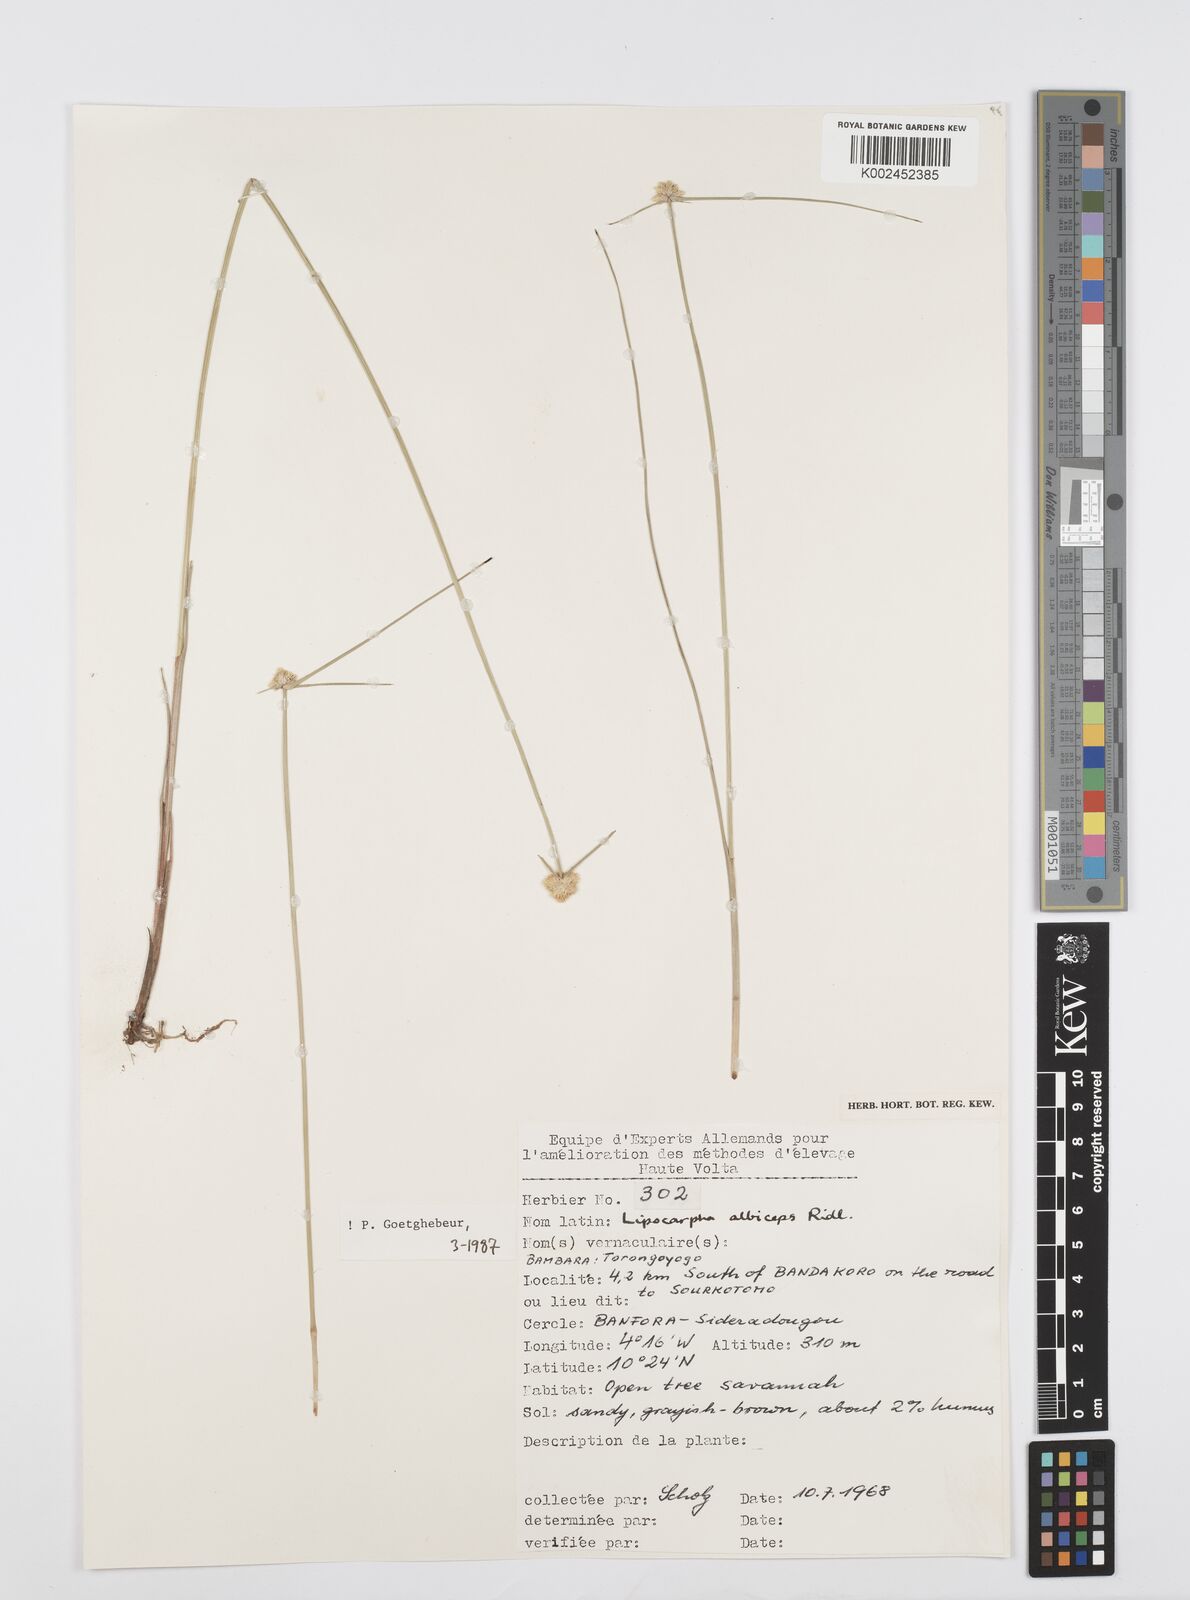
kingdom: Plantae
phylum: Tracheophyta
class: Liliopsida
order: Poales
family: Cyperaceae
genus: Cyperus
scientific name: Cyperus albiceps
